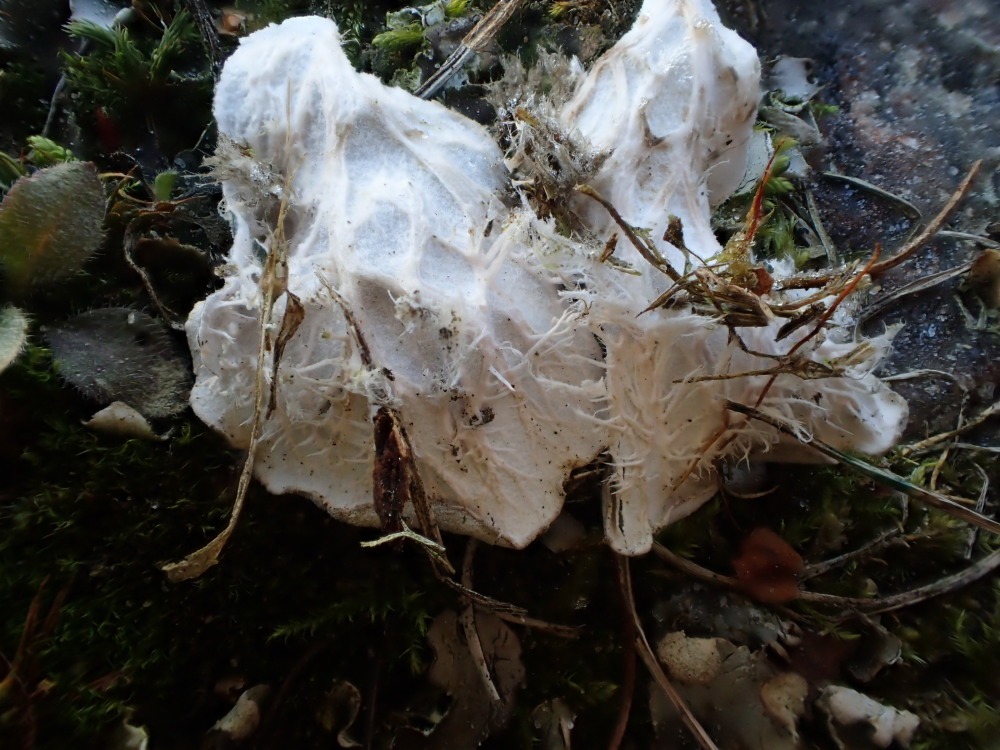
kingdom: Fungi
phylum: Ascomycota
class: Lecanoromycetes
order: Peltigerales
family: Peltigeraceae
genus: Peltigera
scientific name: Peltigera membranacea
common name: tynd skjoldlav
